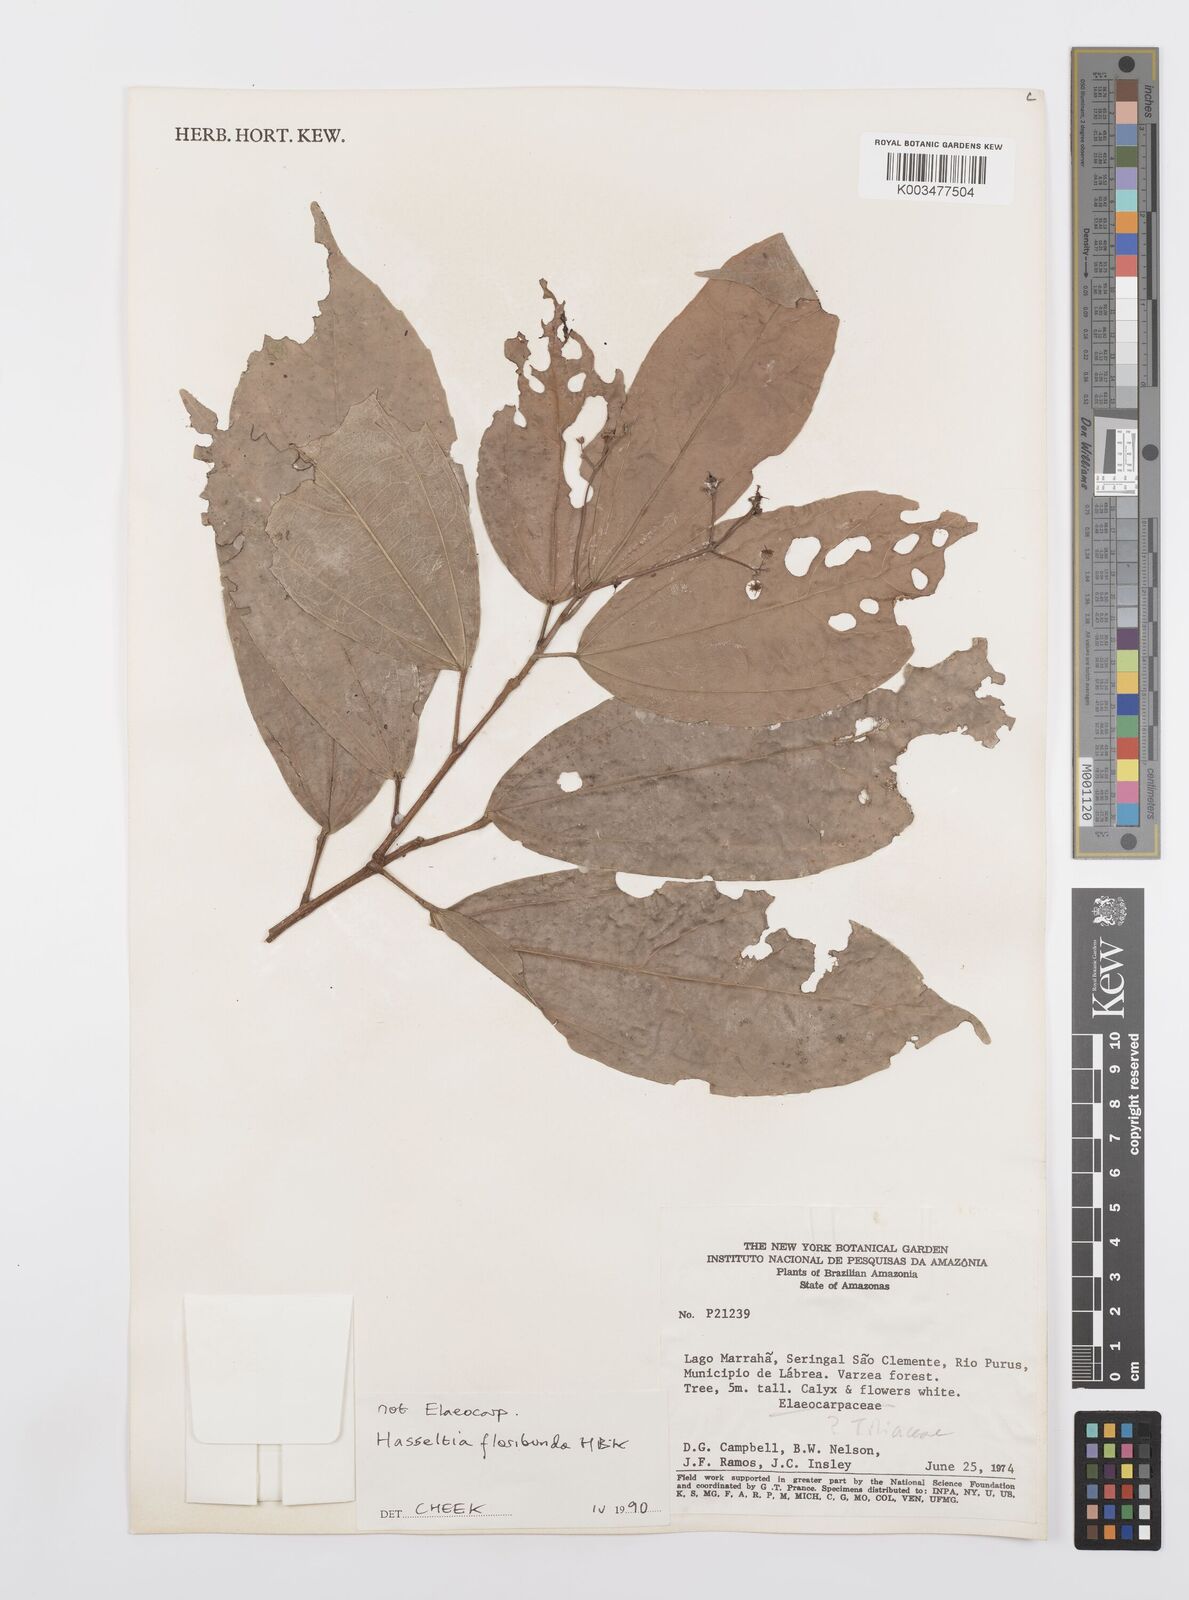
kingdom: Plantae
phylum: Tracheophyta
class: Magnoliopsida
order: Malpighiales
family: Salicaceae
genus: Hasseltia
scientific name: Hasseltia floribunda
